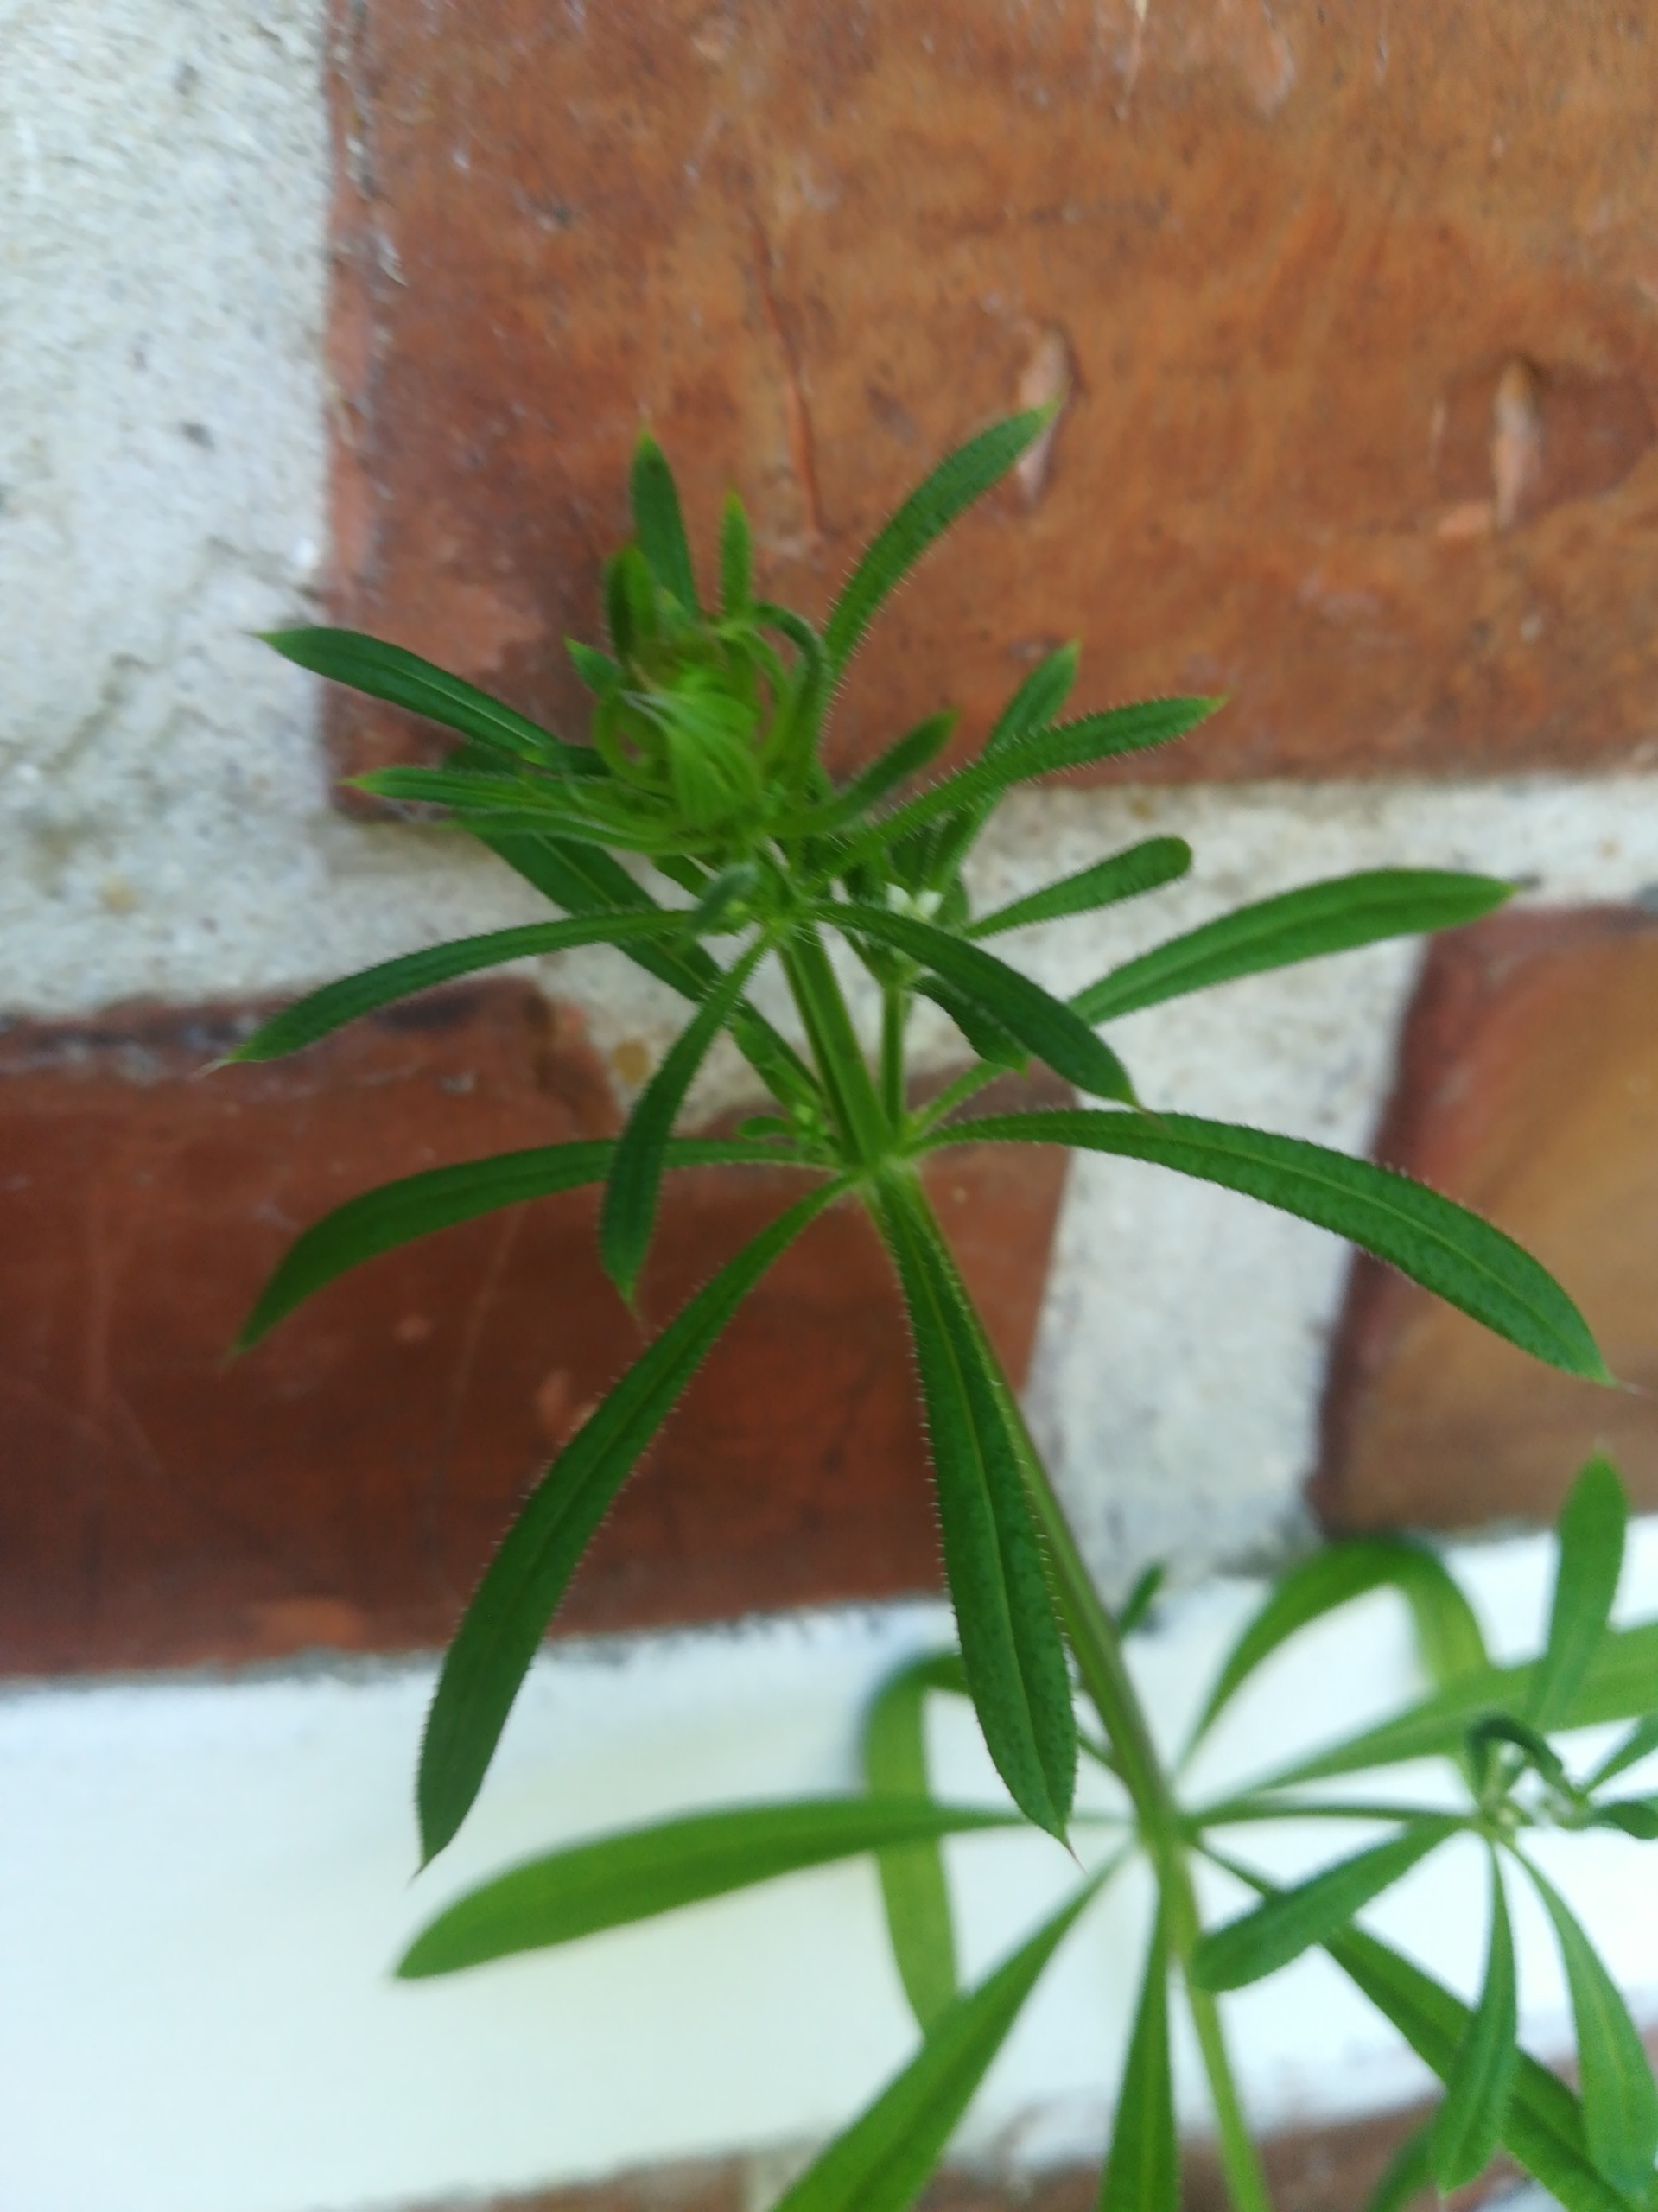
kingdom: Plantae
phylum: Tracheophyta
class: Magnoliopsida
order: Gentianales
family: Rubiaceae
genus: Galium
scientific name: Galium aparine
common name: Burre-snerre
